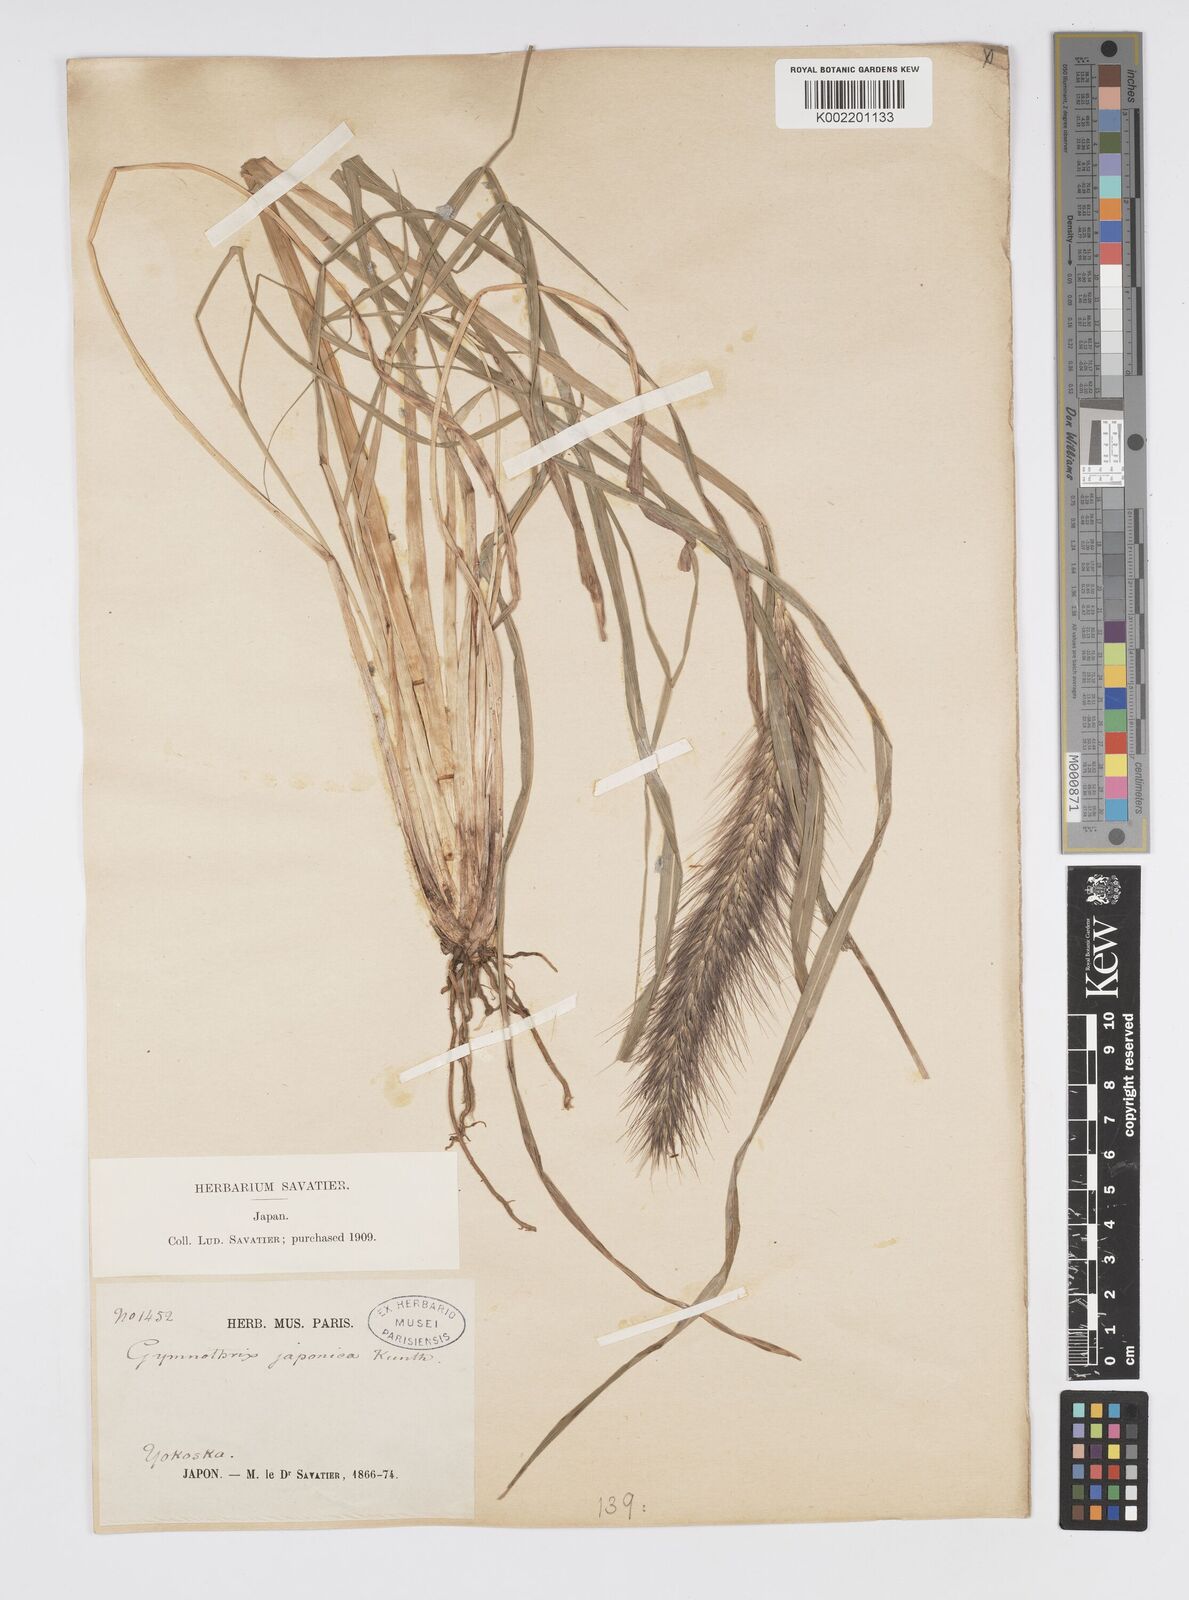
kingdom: Plantae
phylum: Tracheophyta
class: Liliopsida
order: Poales
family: Poaceae
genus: Cenchrus
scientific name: Cenchrus alopecuroides
